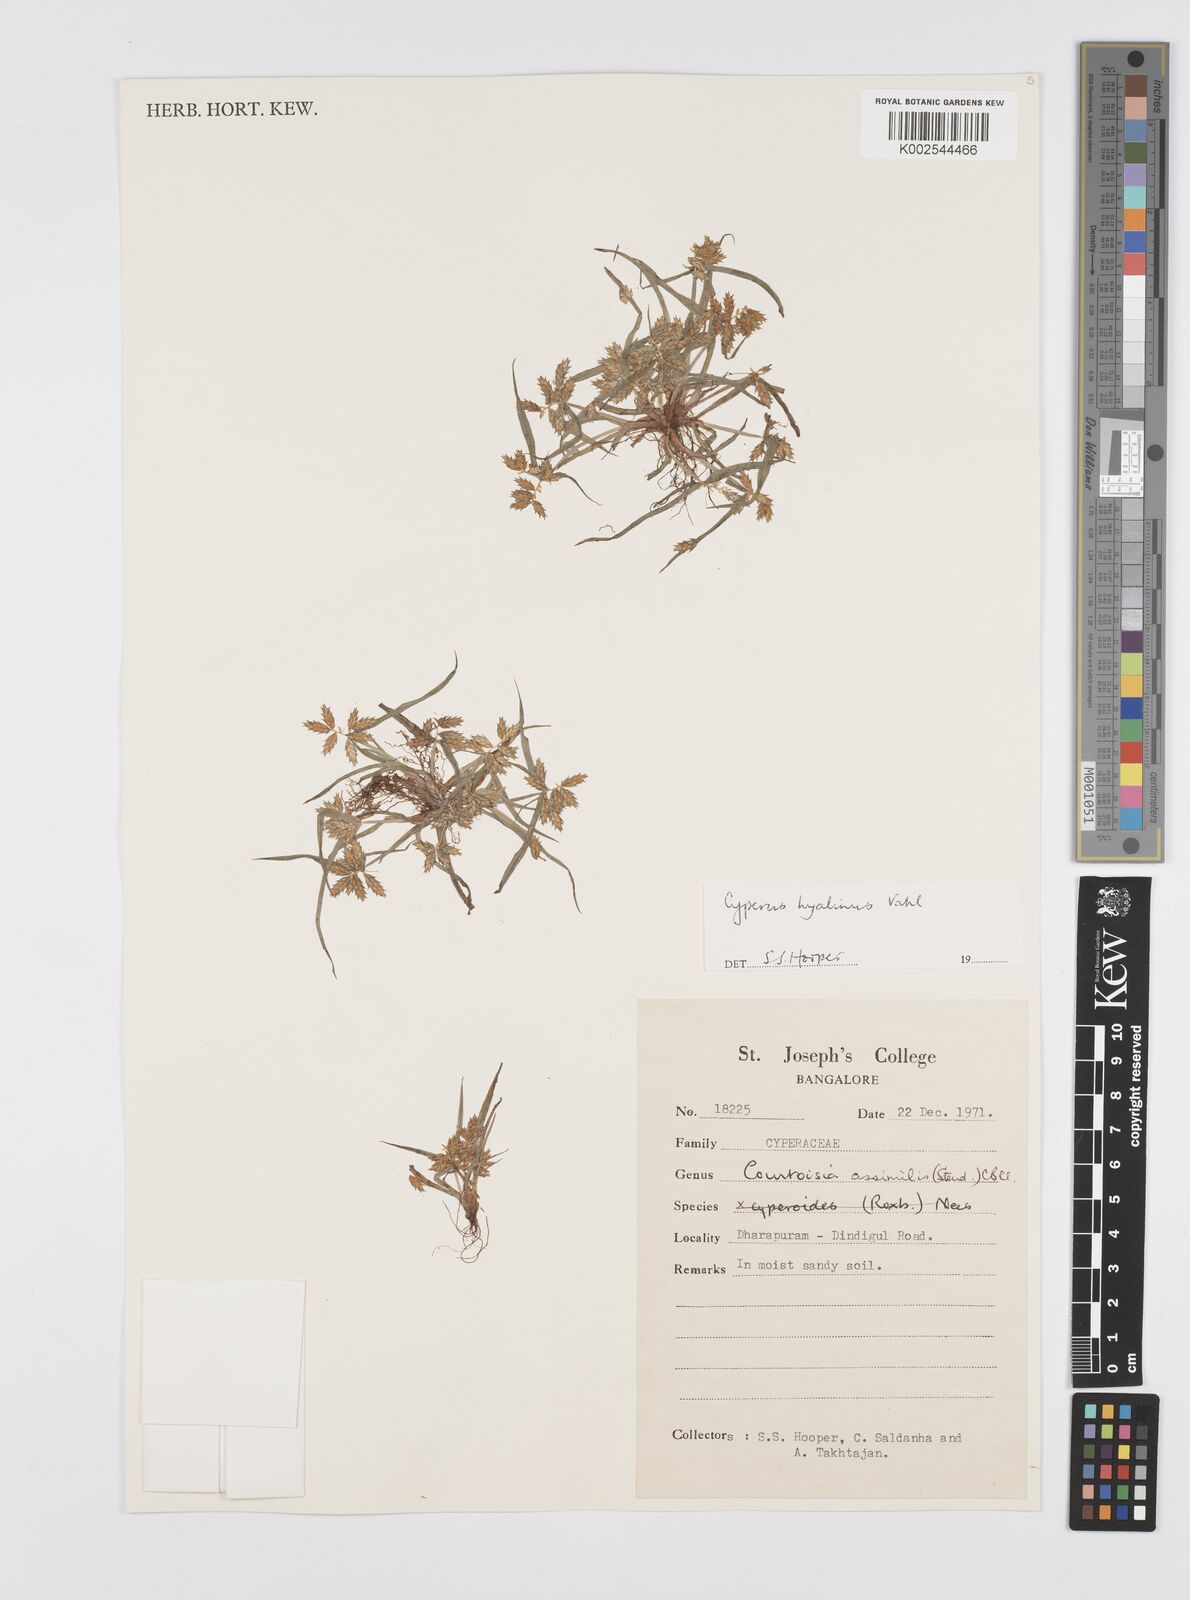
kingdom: Plantae
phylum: Tracheophyta
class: Liliopsida
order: Poales
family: Cyperaceae
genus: Cyperus
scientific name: Cyperus hyalinus
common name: Queensland sedge
